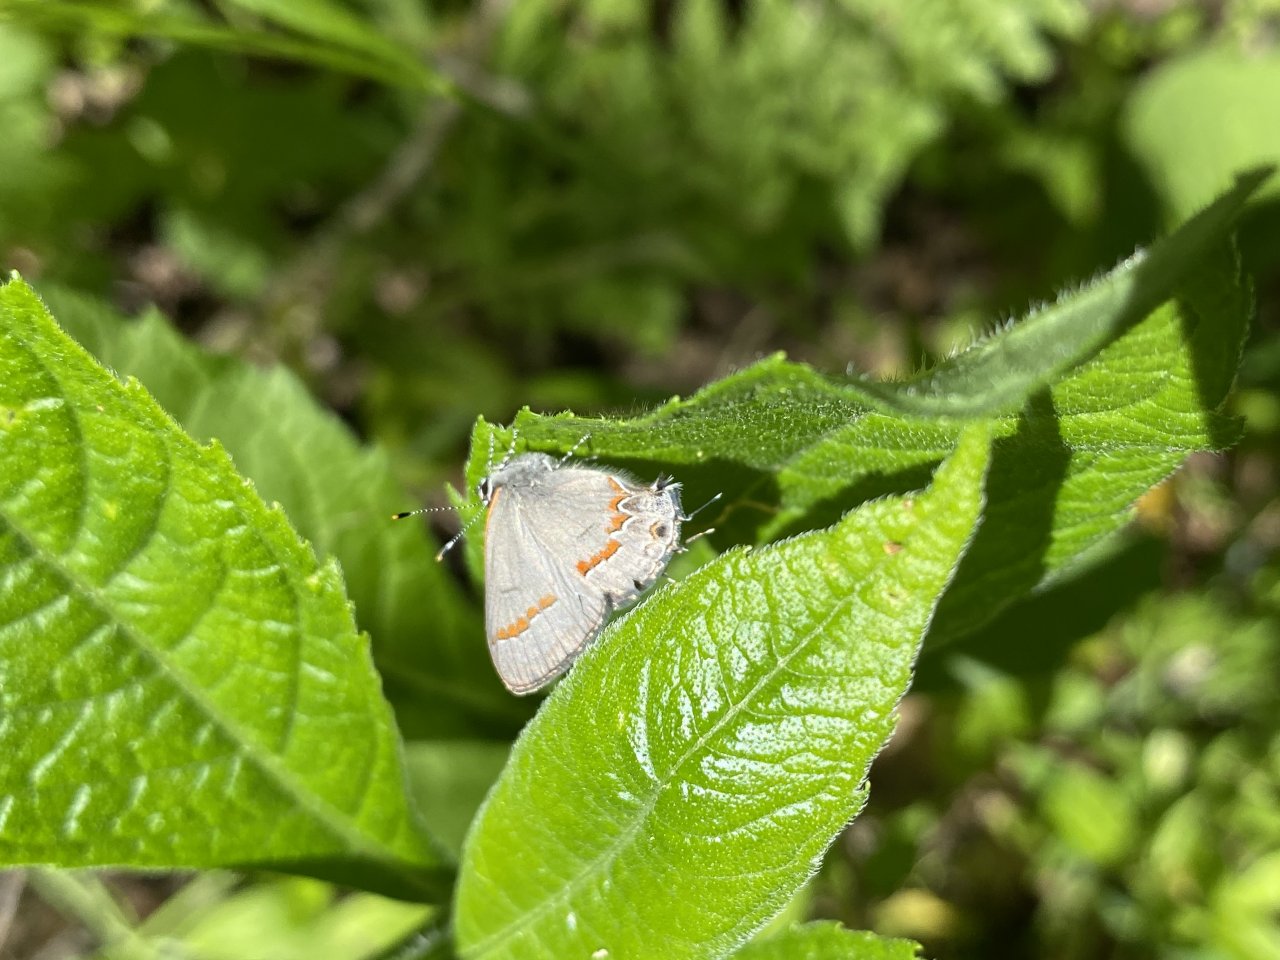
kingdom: Animalia
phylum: Arthropoda
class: Insecta
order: Lepidoptera
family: Lycaenidae
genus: Calycopis
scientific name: Calycopis cecrops
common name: Red-banded Hairstreak
